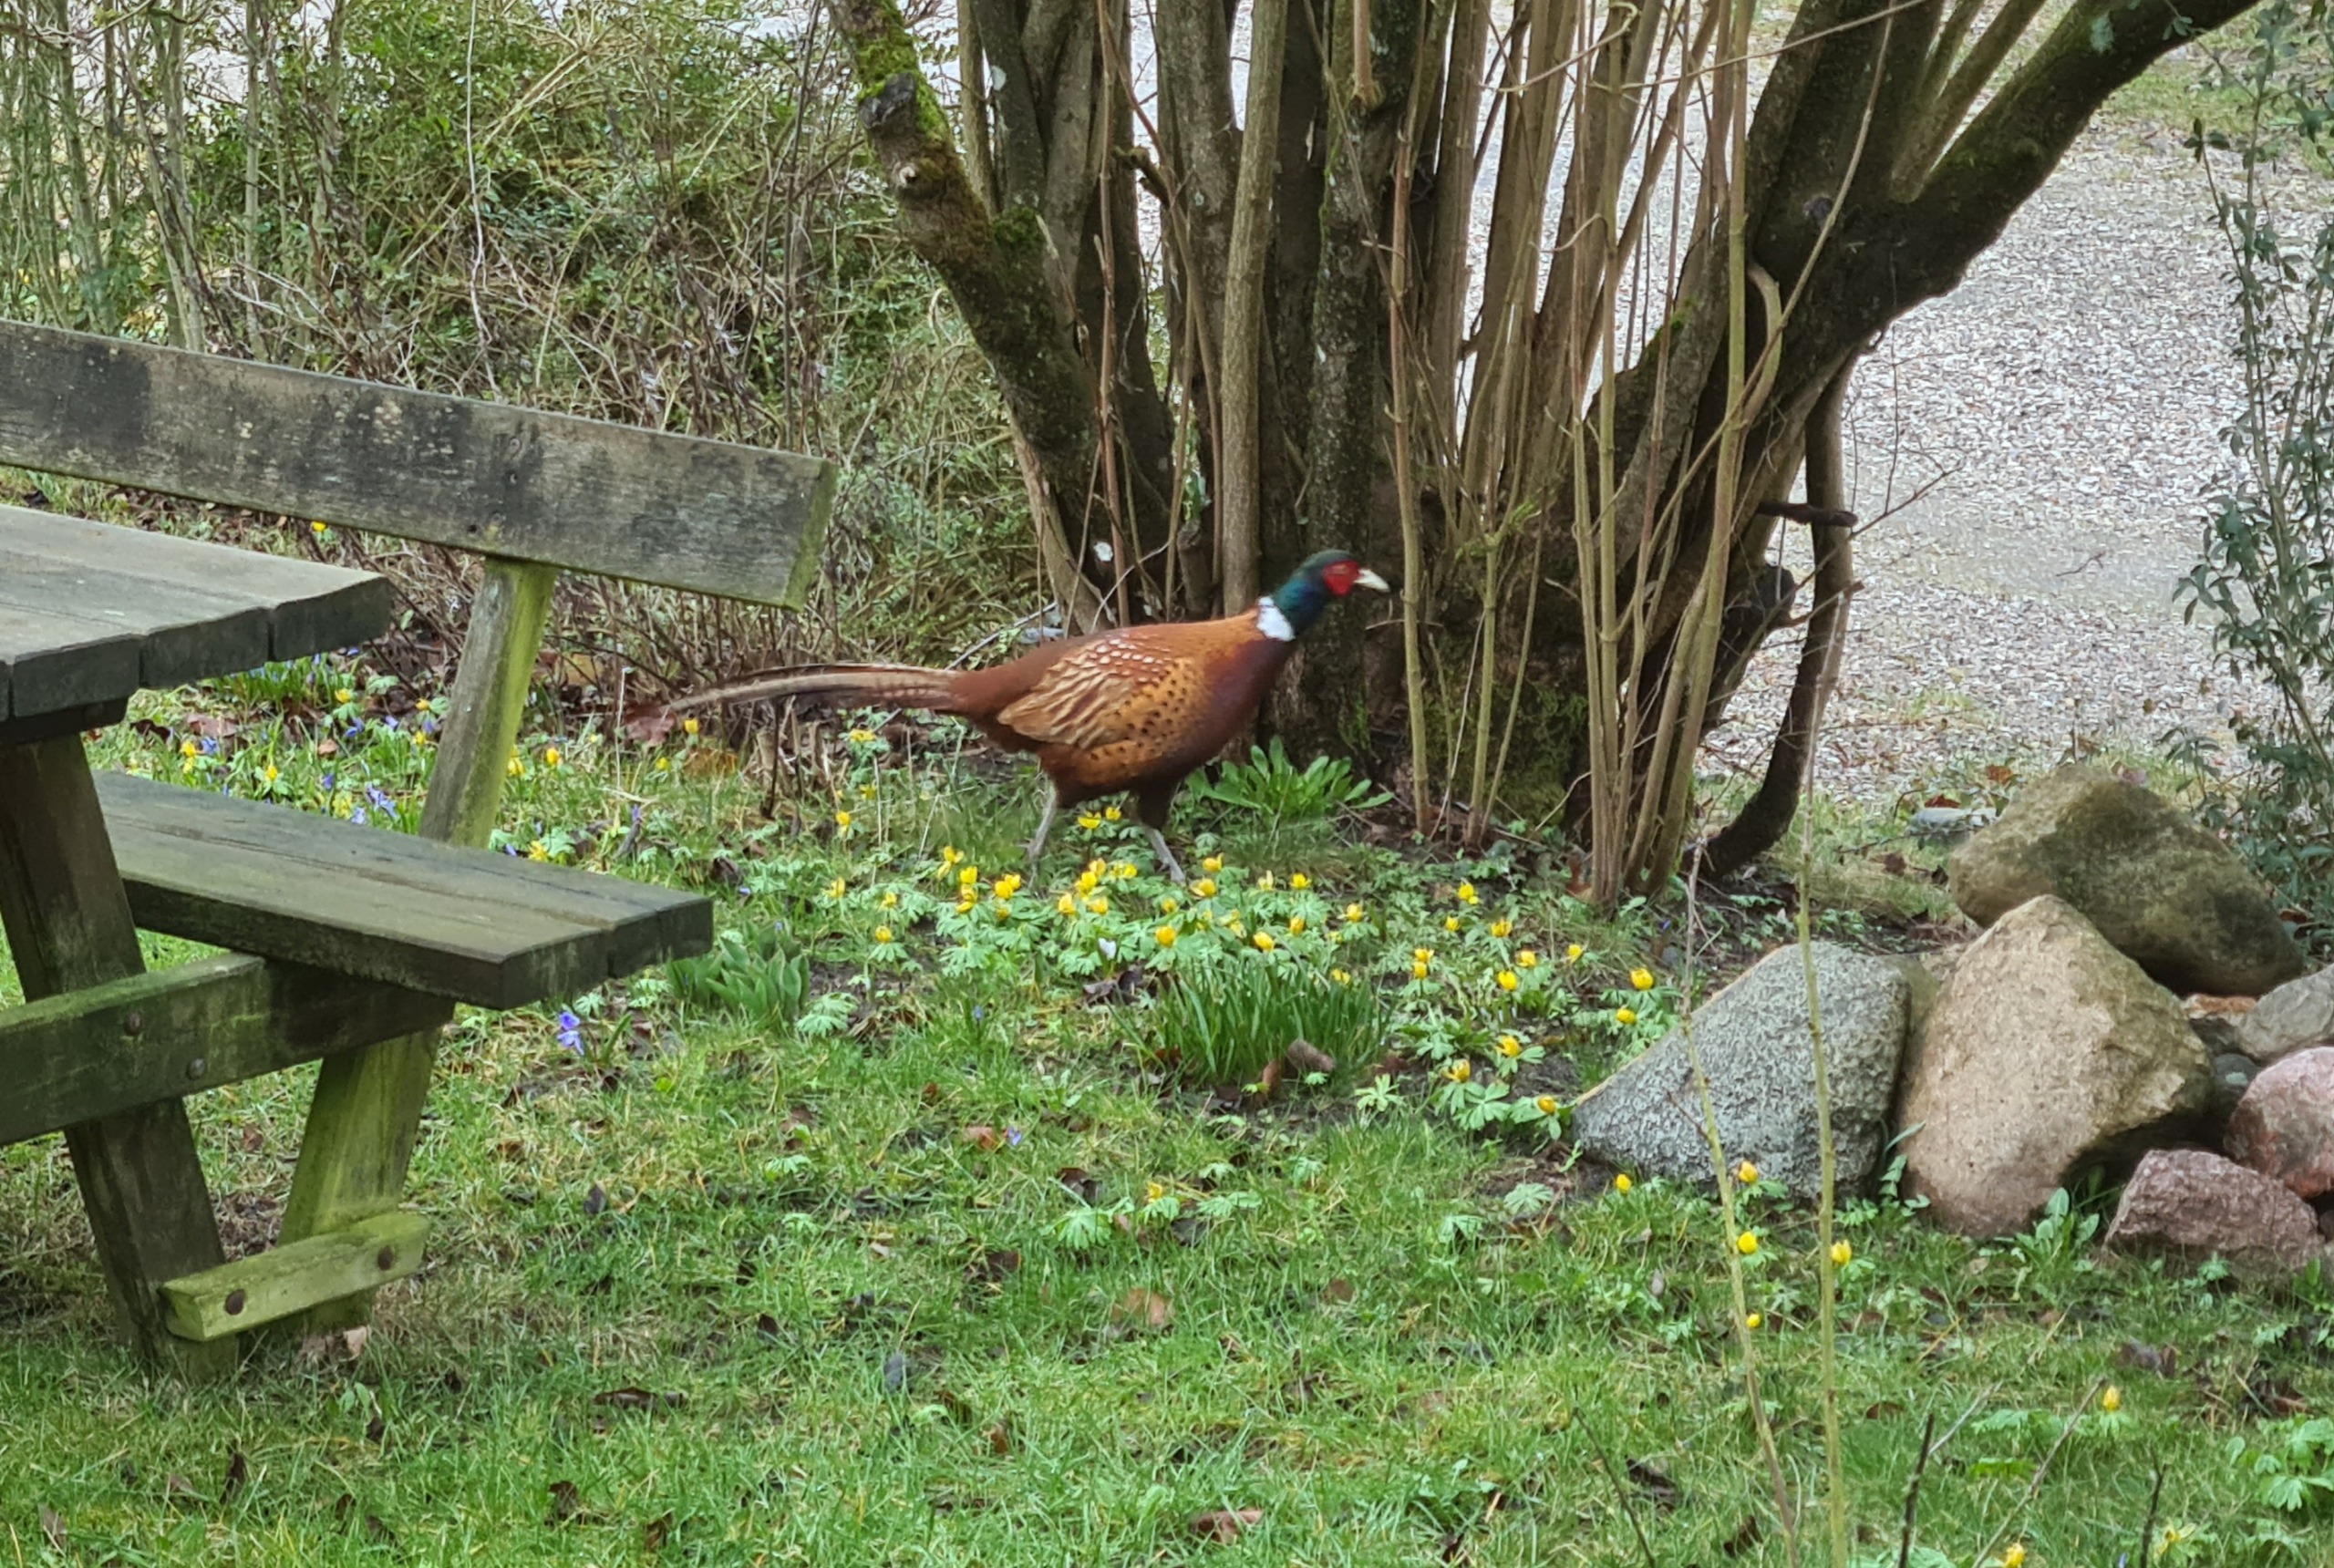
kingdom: Animalia
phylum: Chordata
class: Aves
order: Galliformes
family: Phasianidae
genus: Phasianus
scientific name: Phasianus colchicus
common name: Fasan
